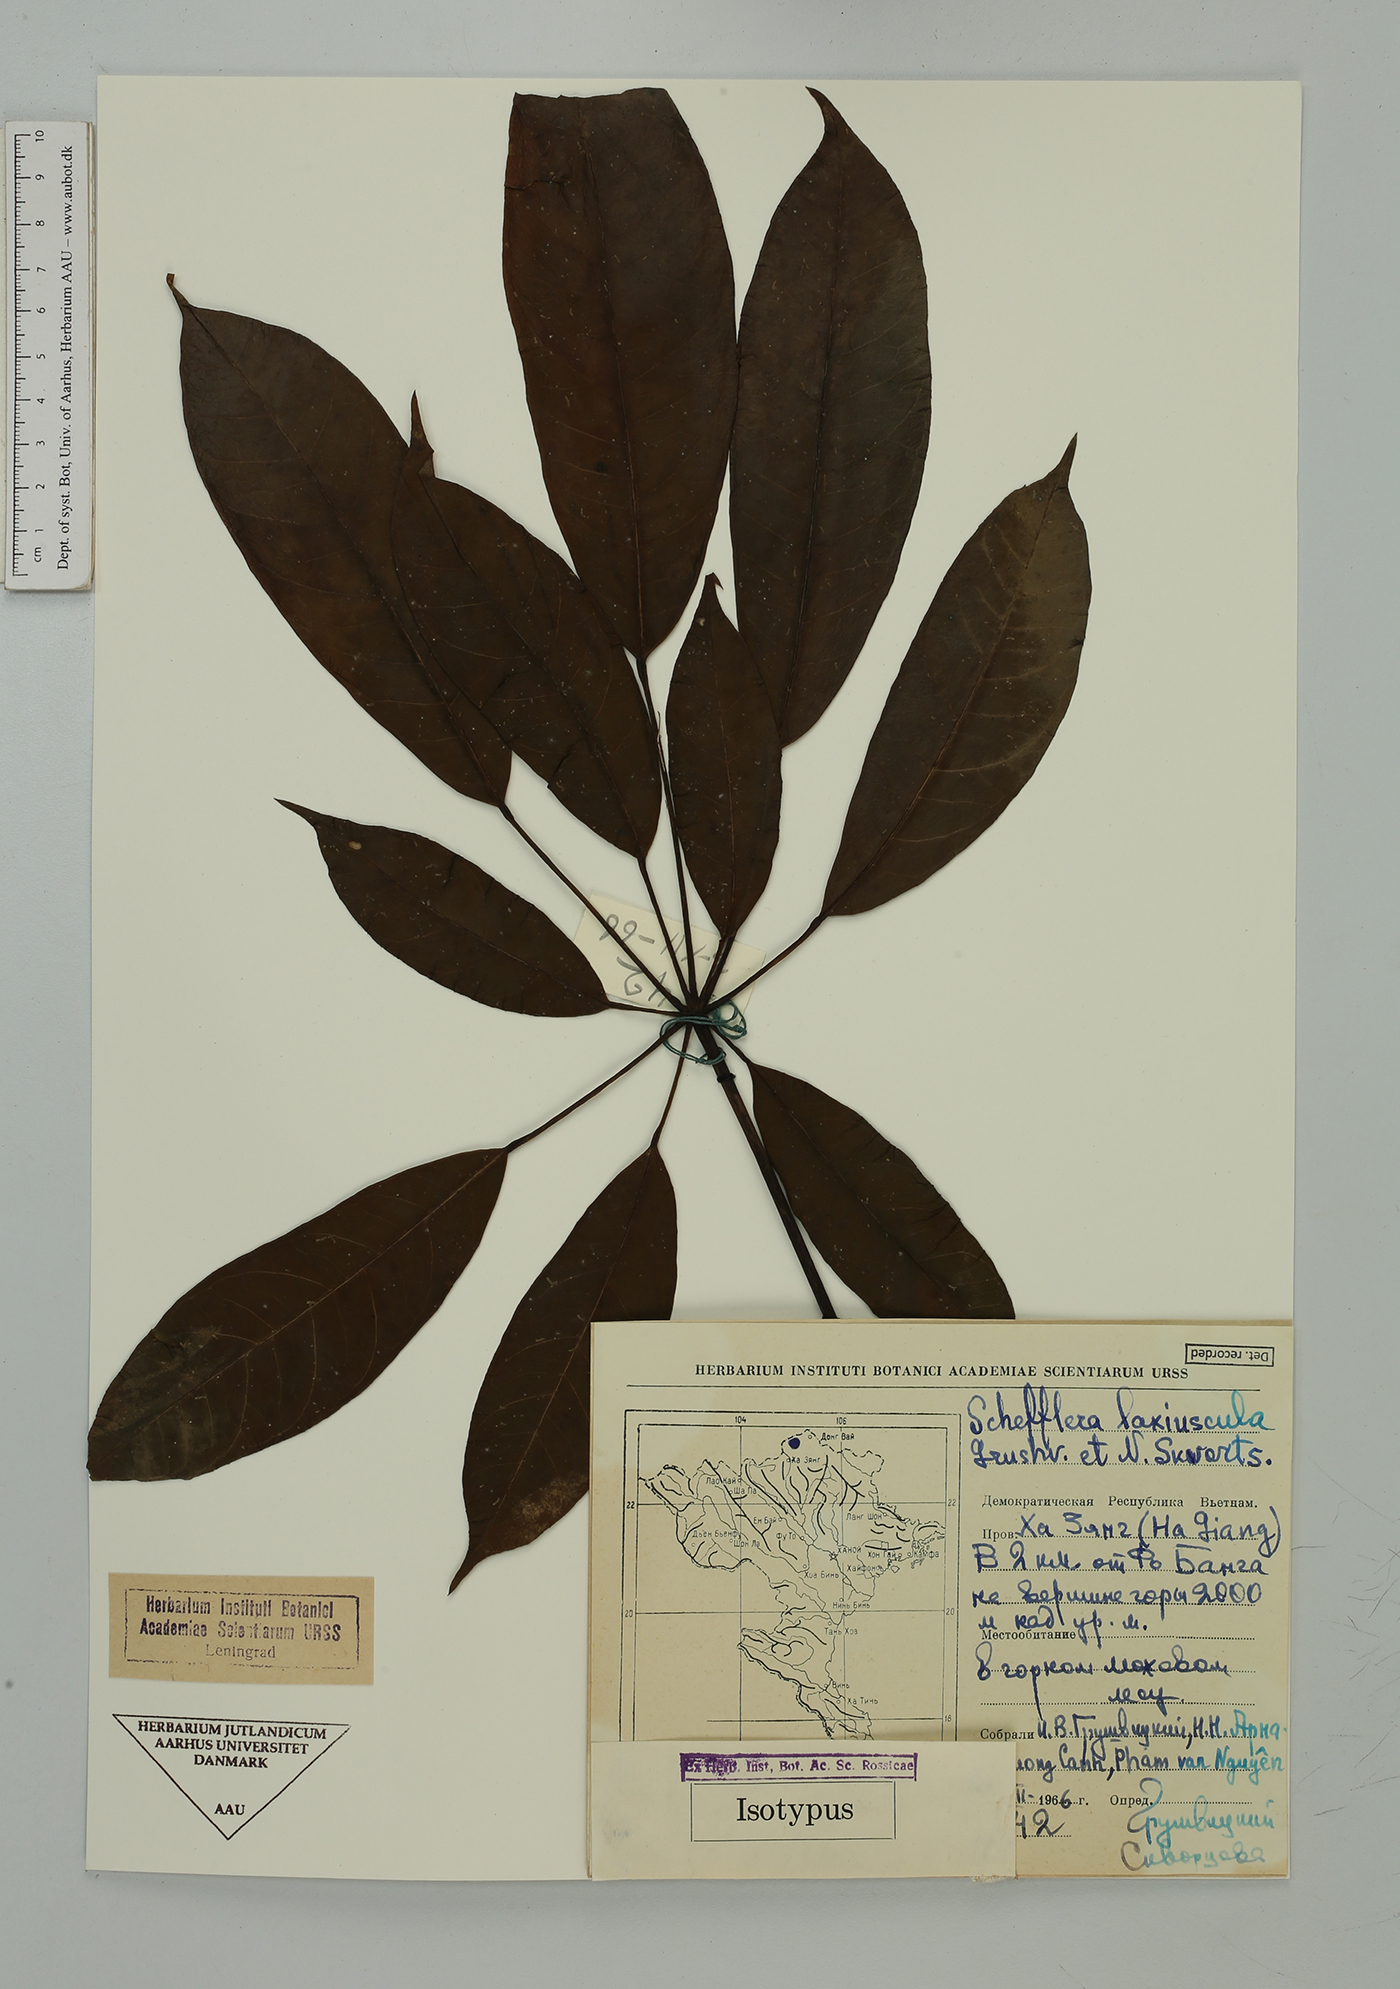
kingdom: Plantae
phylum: Tracheophyta
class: Magnoliopsida
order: Apiales
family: Araliaceae
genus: Heptapleurum
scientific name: Heptapleurum laxiusculum
